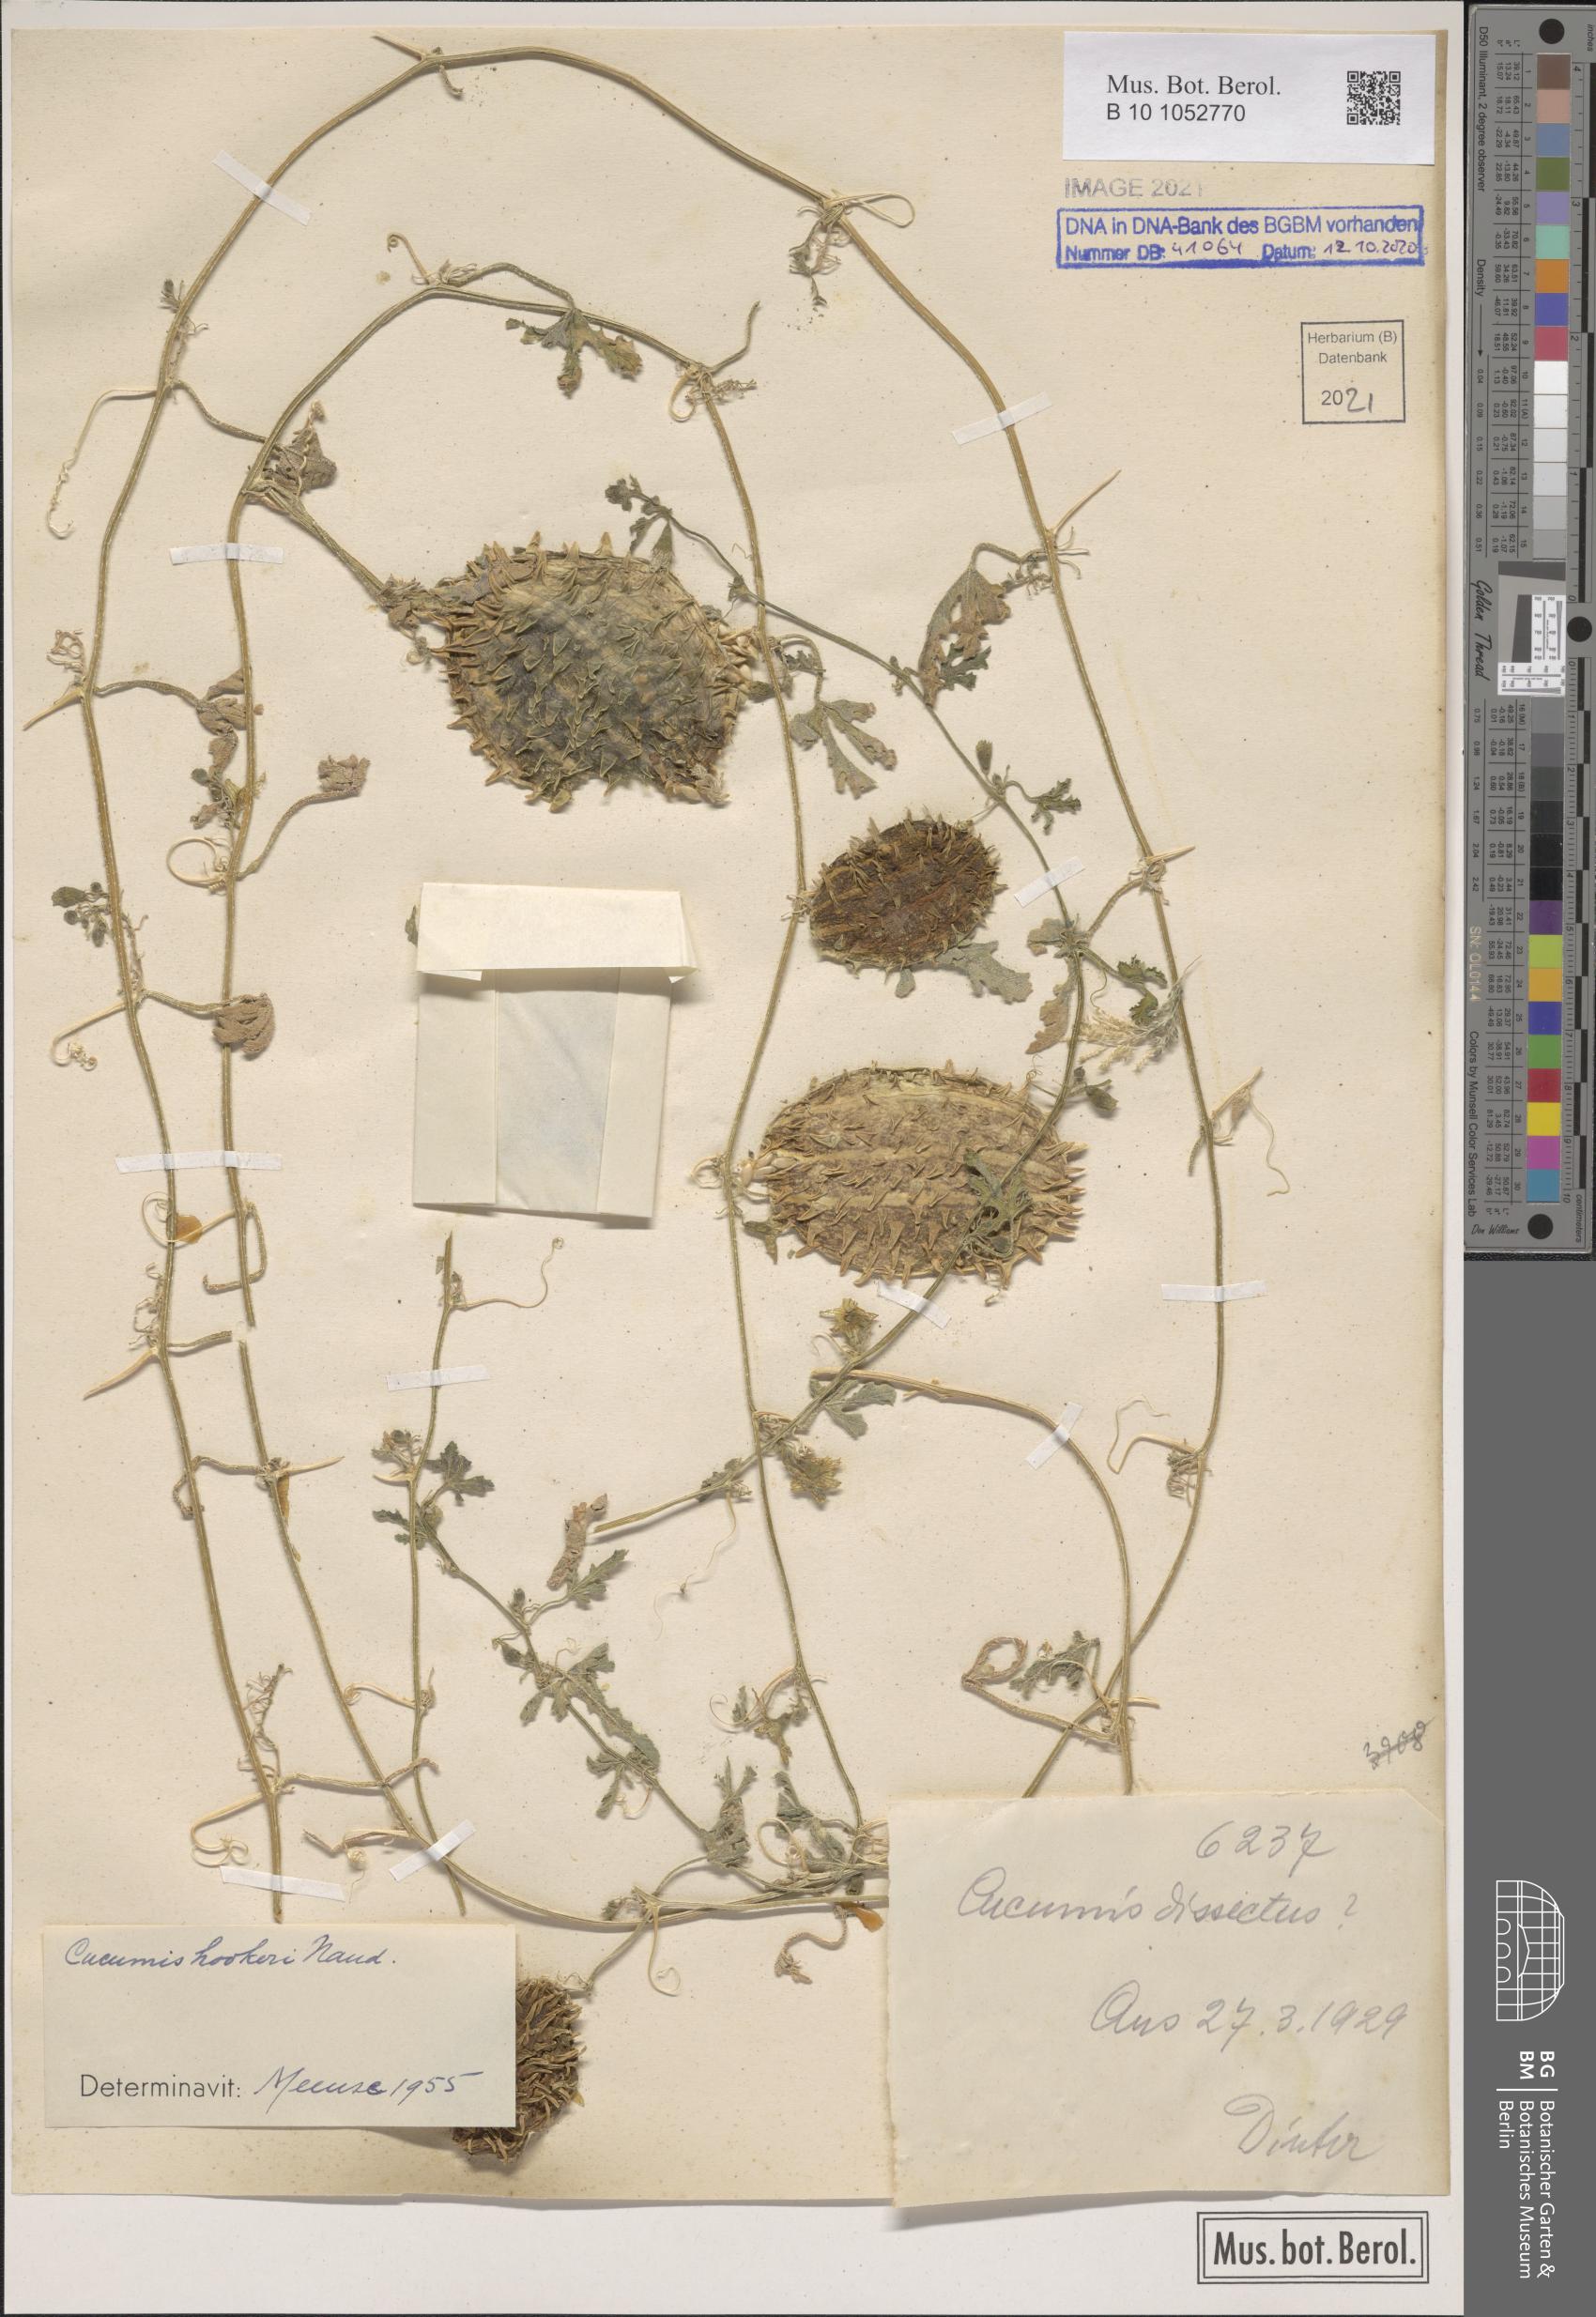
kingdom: Plantae
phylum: Tracheophyta
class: Magnoliopsida
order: Cucurbitales
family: Cucurbitaceae
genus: Cucumis
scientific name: Cucumis africanus
